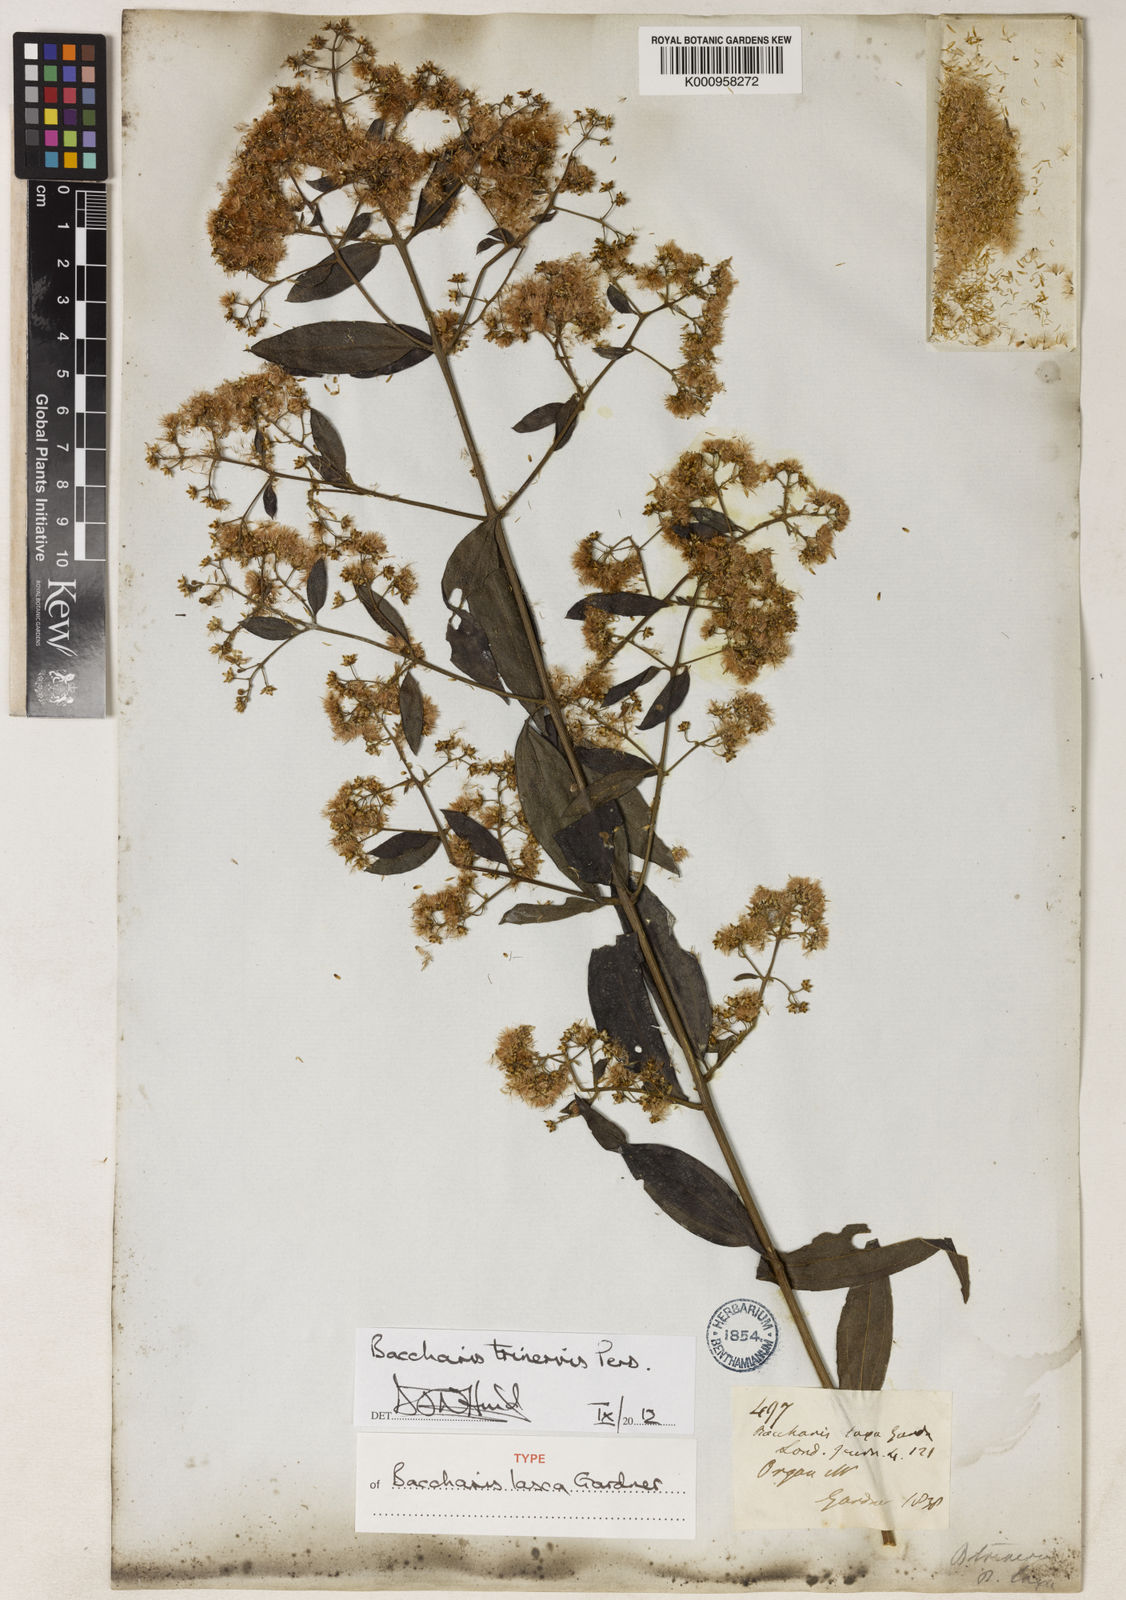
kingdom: Plantae
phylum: Tracheophyta
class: Magnoliopsida
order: Asterales
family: Asteraceae
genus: Baccharis
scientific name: Baccharis trinervis
